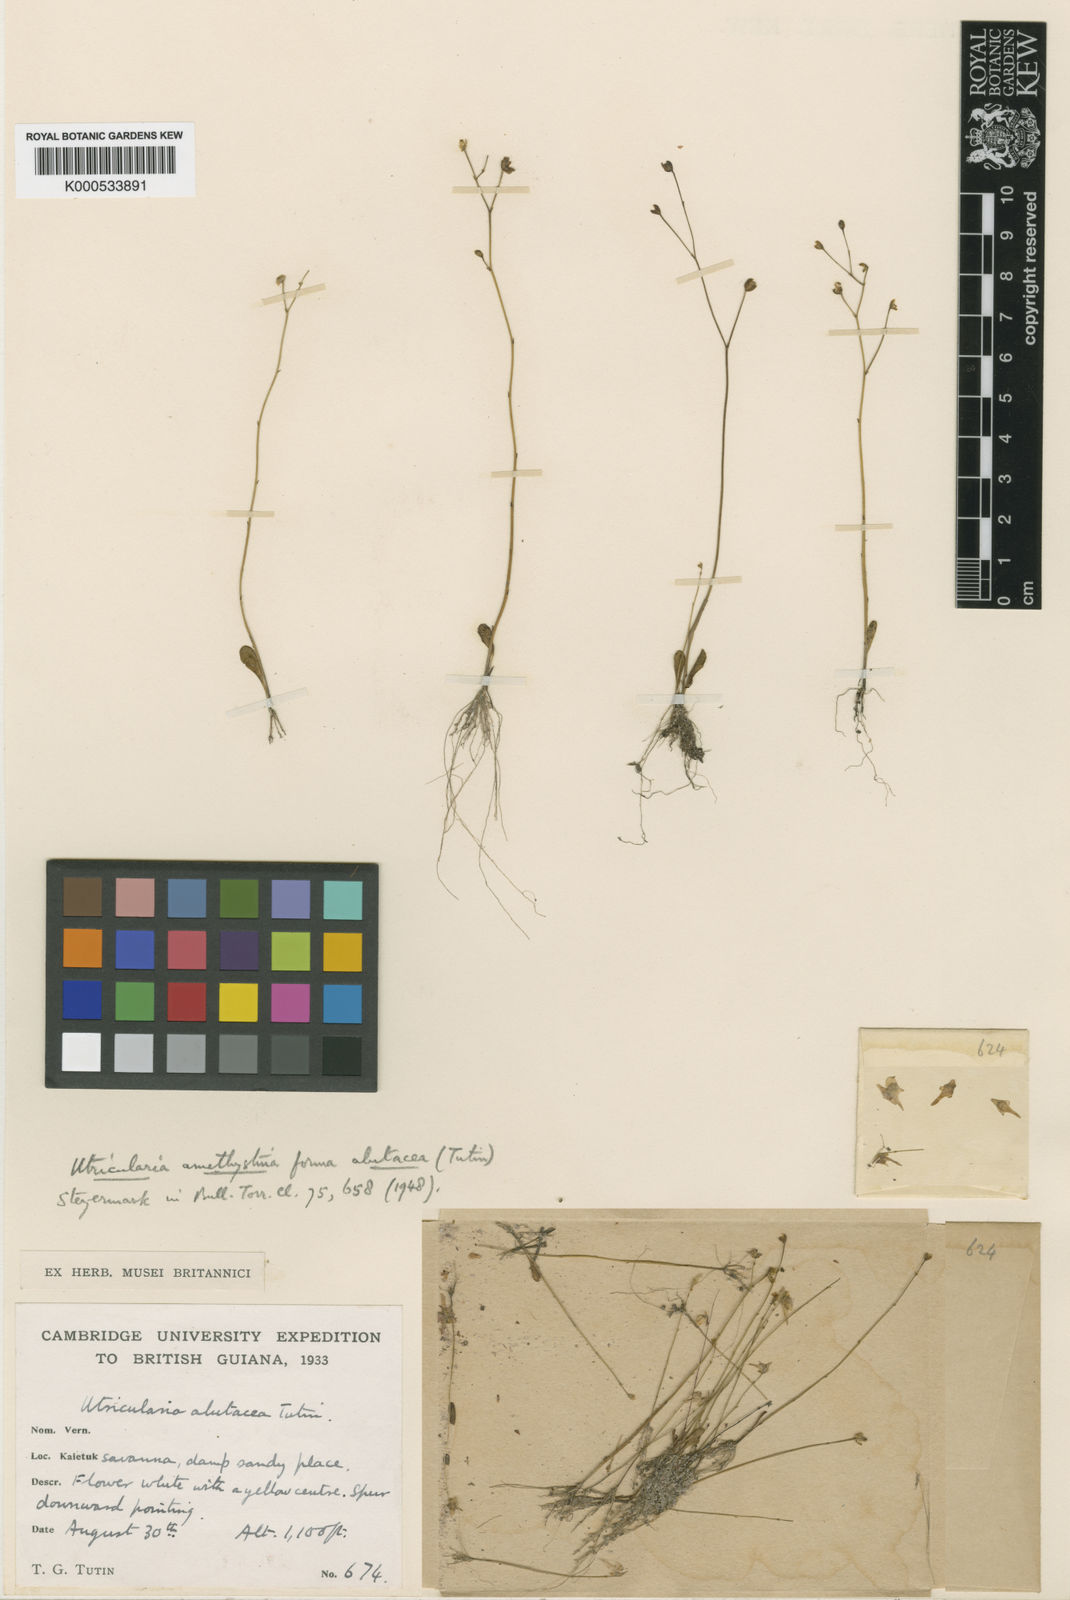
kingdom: Plantae
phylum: Tracheophyta
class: Magnoliopsida
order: Lamiales
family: Lentibulariaceae
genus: Utricularia
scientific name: Utricularia amethystina
